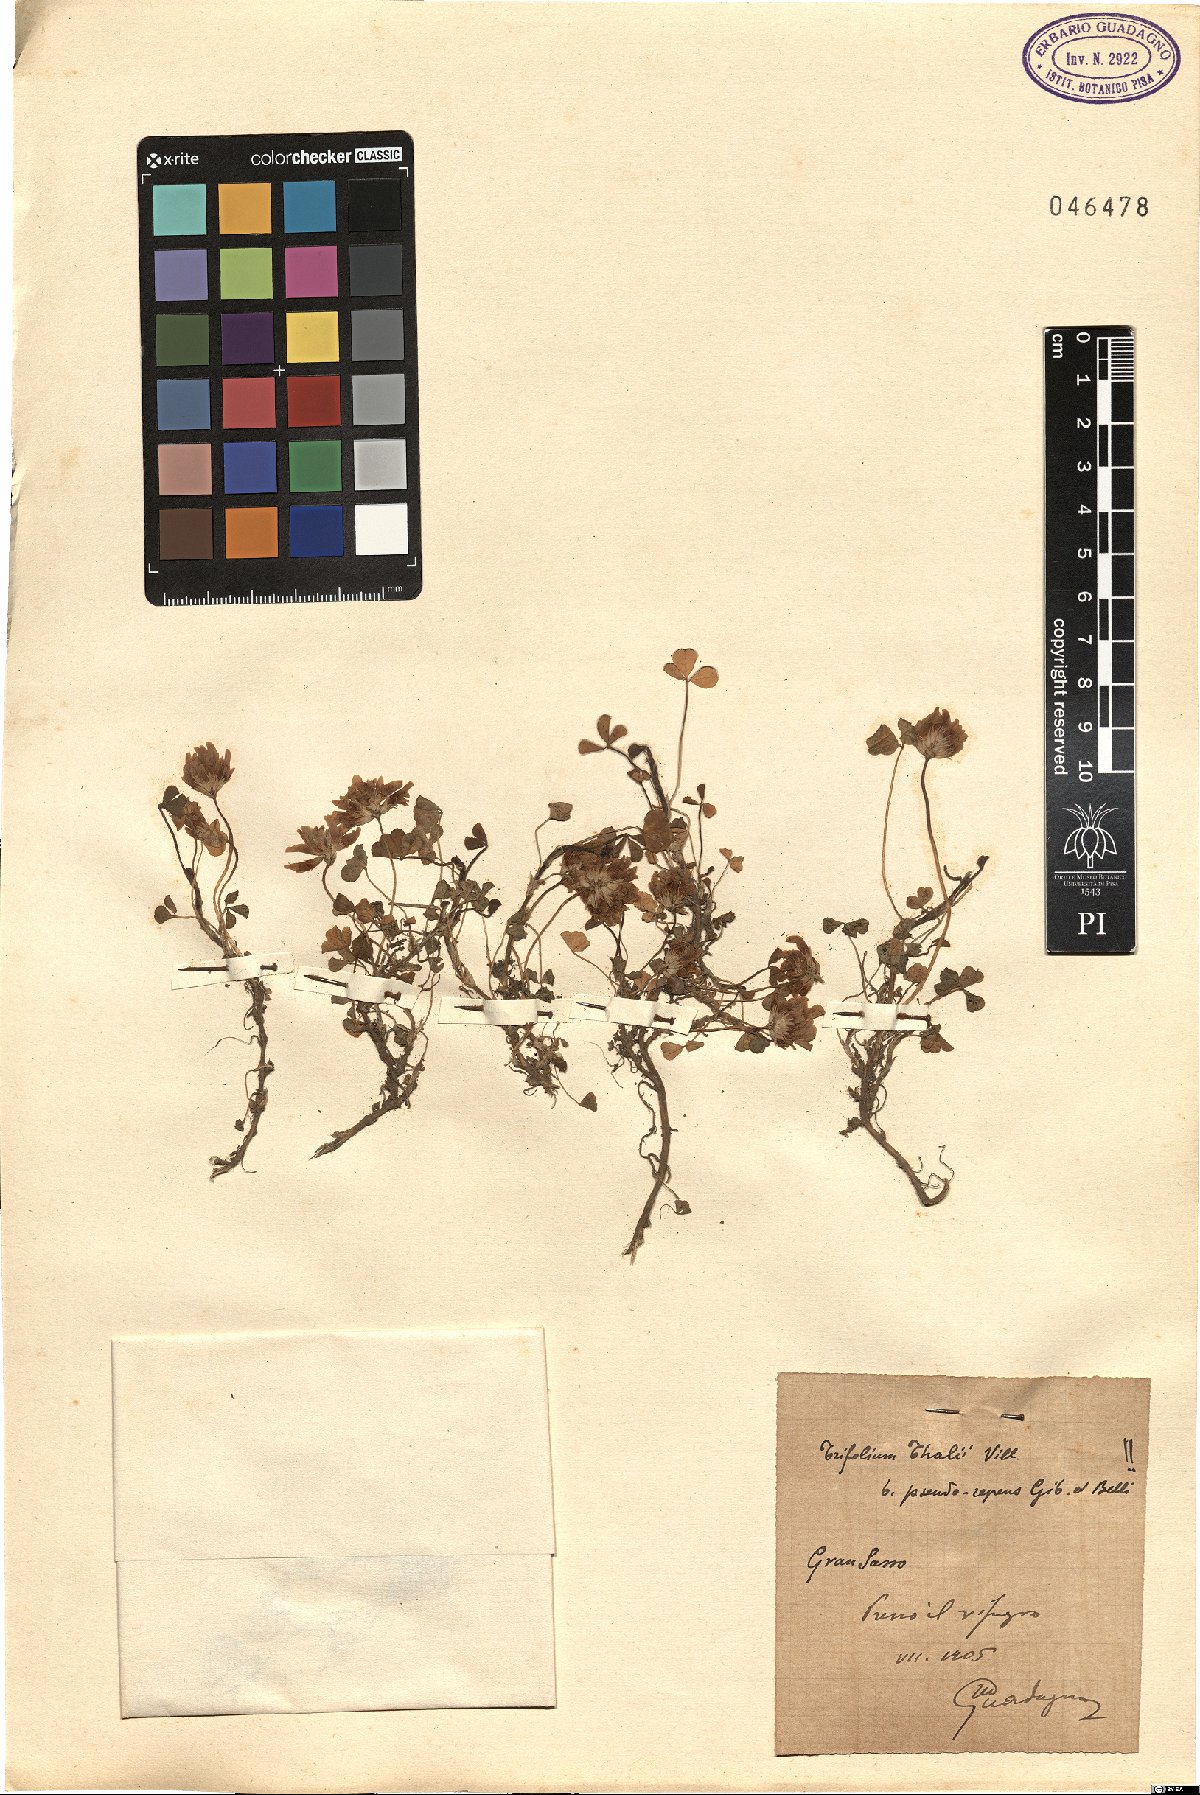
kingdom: Plantae
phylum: Tracheophyta
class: Magnoliopsida
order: Fabales
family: Fabaceae
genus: Trifolium
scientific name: Trifolium thalii
